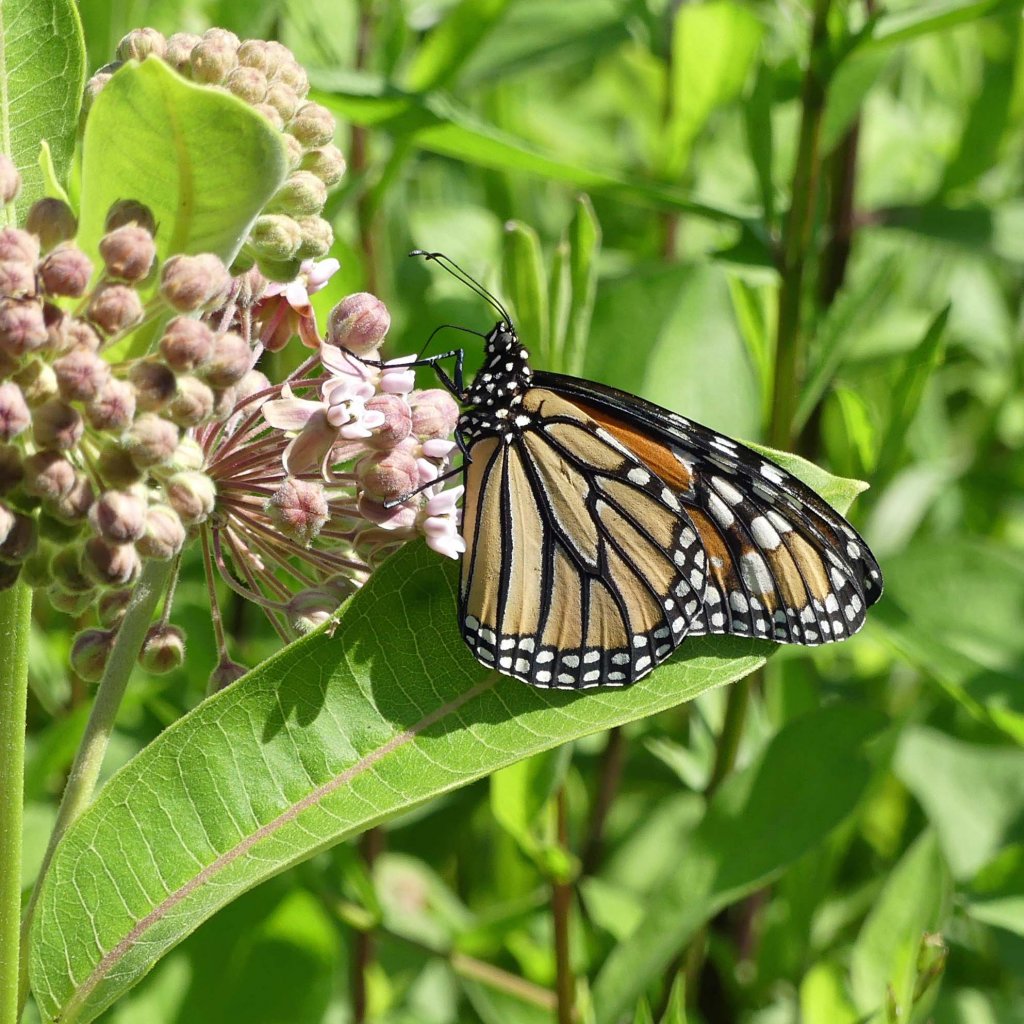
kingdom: Animalia
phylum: Arthropoda
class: Insecta
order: Lepidoptera
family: Nymphalidae
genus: Danaus
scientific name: Danaus plexippus
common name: Monarch
